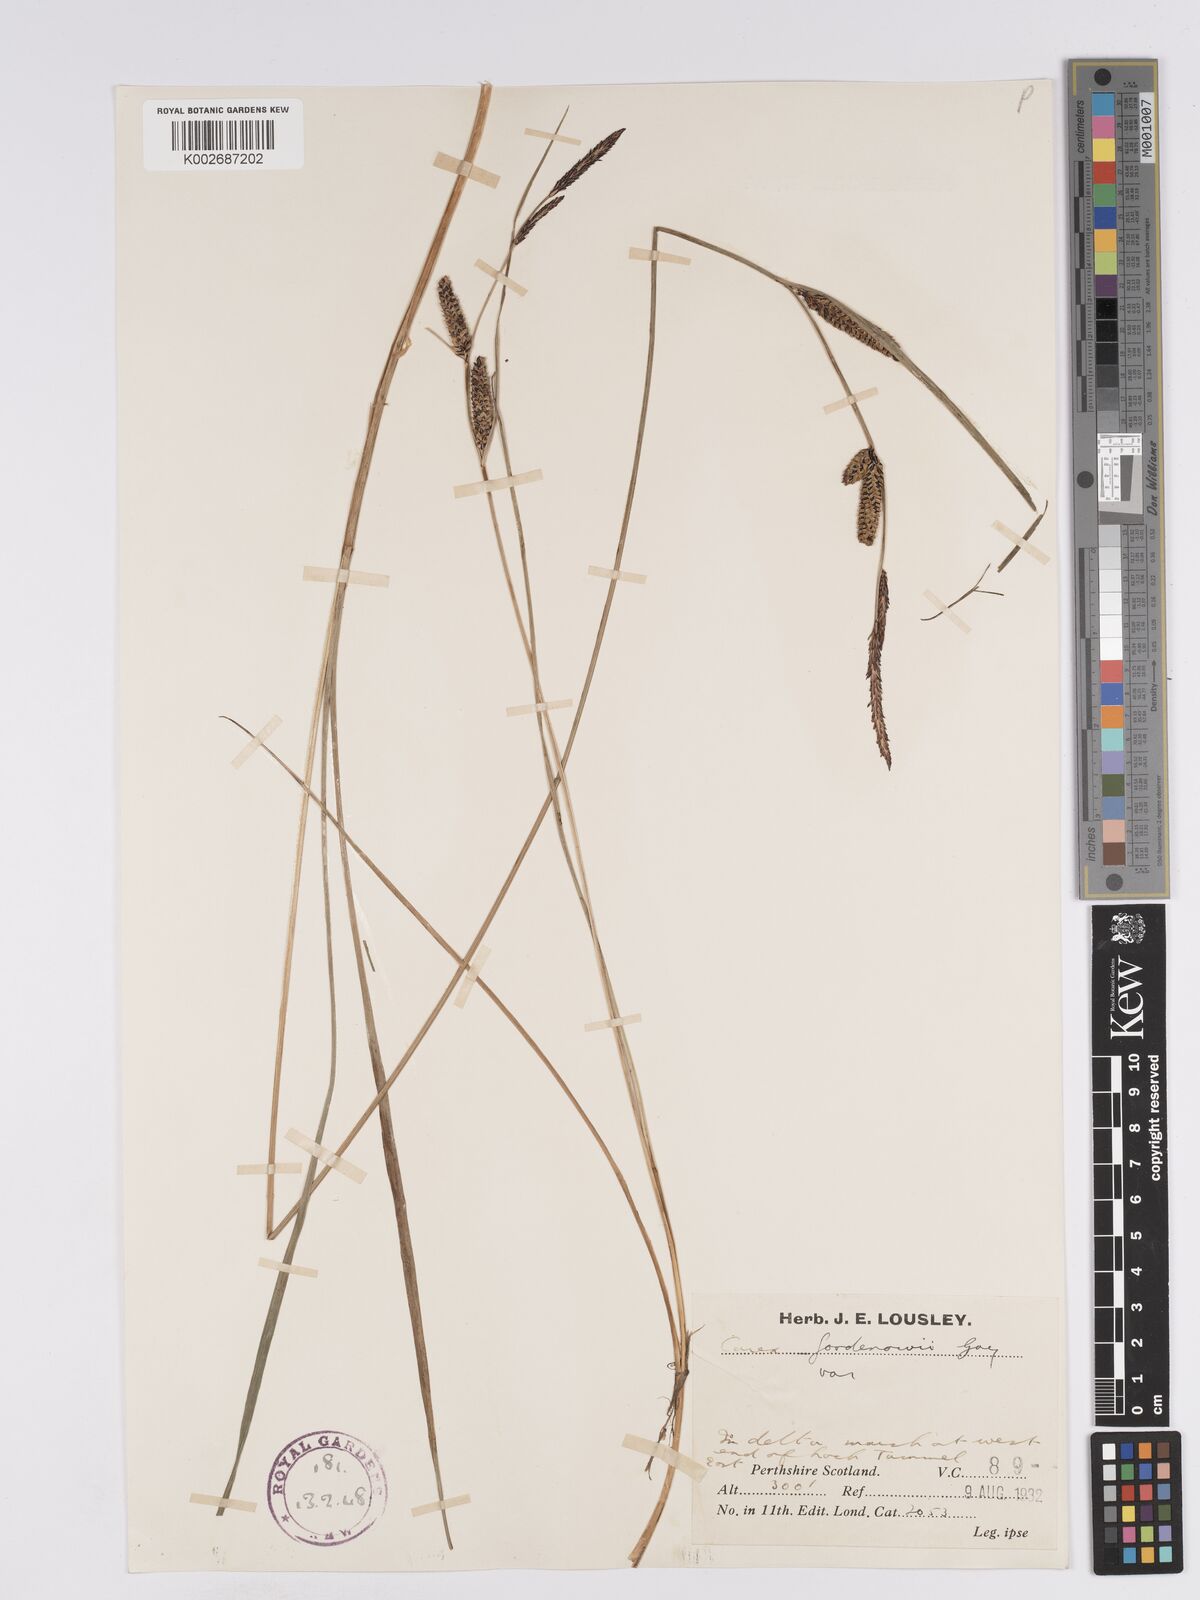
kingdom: Plantae
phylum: Tracheophyta
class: Liliopsida
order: Poales
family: Cyperaceae
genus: Carex
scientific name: Carex nigra
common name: Common sedge
